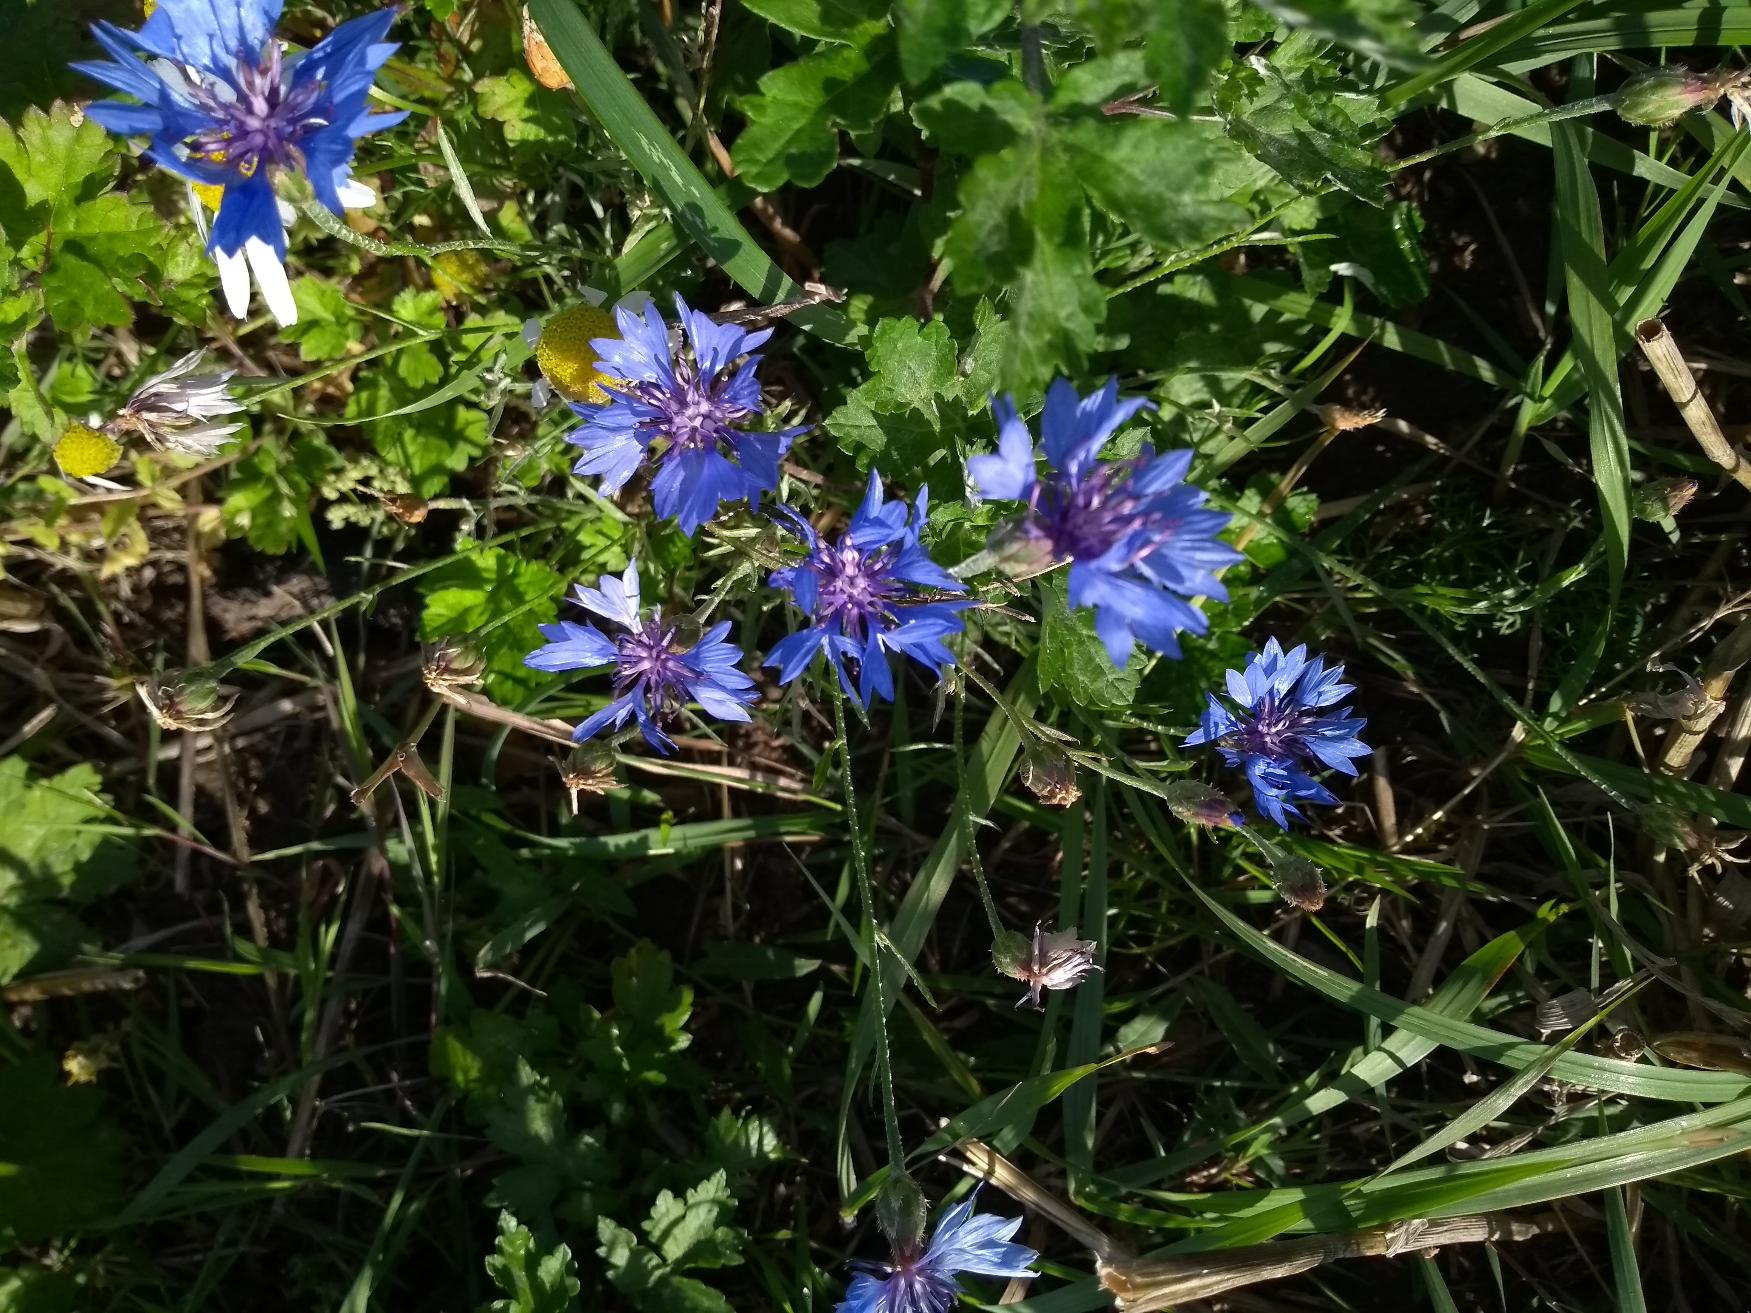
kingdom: Plantae
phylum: Tracheophyta
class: Magnoliopsida
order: Asterales
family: Asteraceae
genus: Centaurea
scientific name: Centaurea cyanus
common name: Kornblomst
